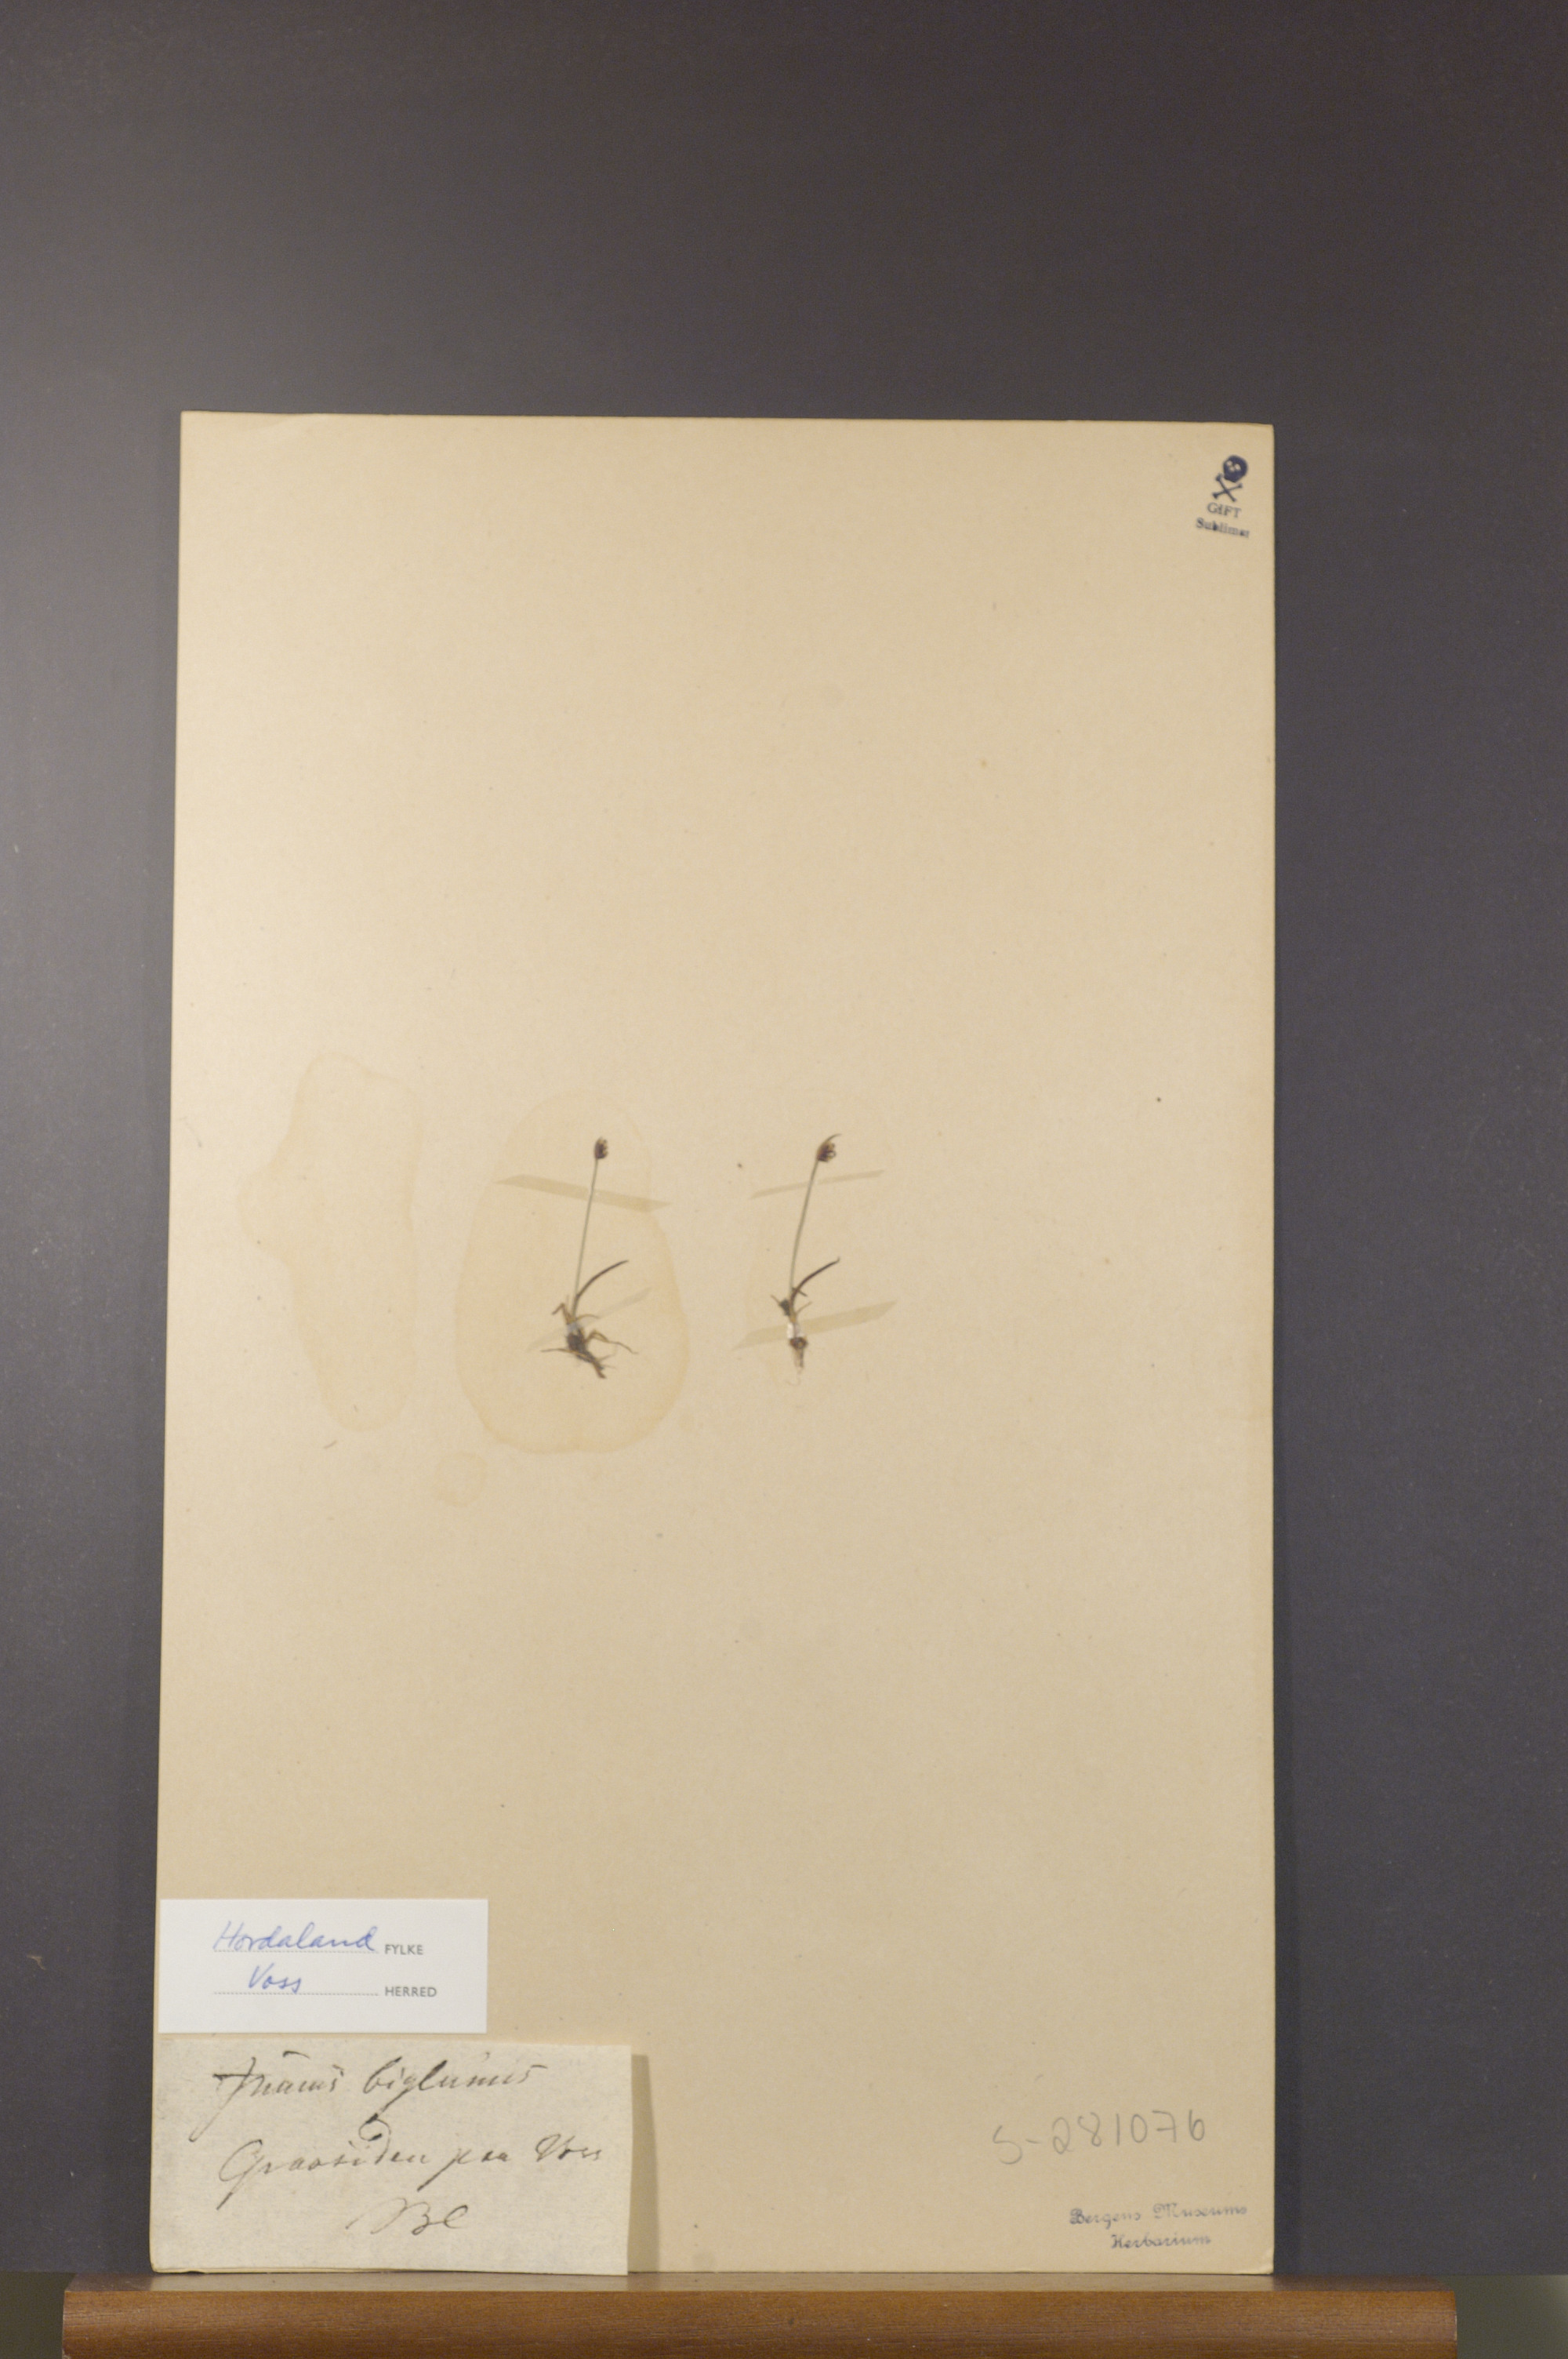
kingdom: Plantae
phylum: Tracheophyta
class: Liliopsida
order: Poales
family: Juncaceae
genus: Juncus
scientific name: Juncus biglumis
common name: Two-flowered rush
